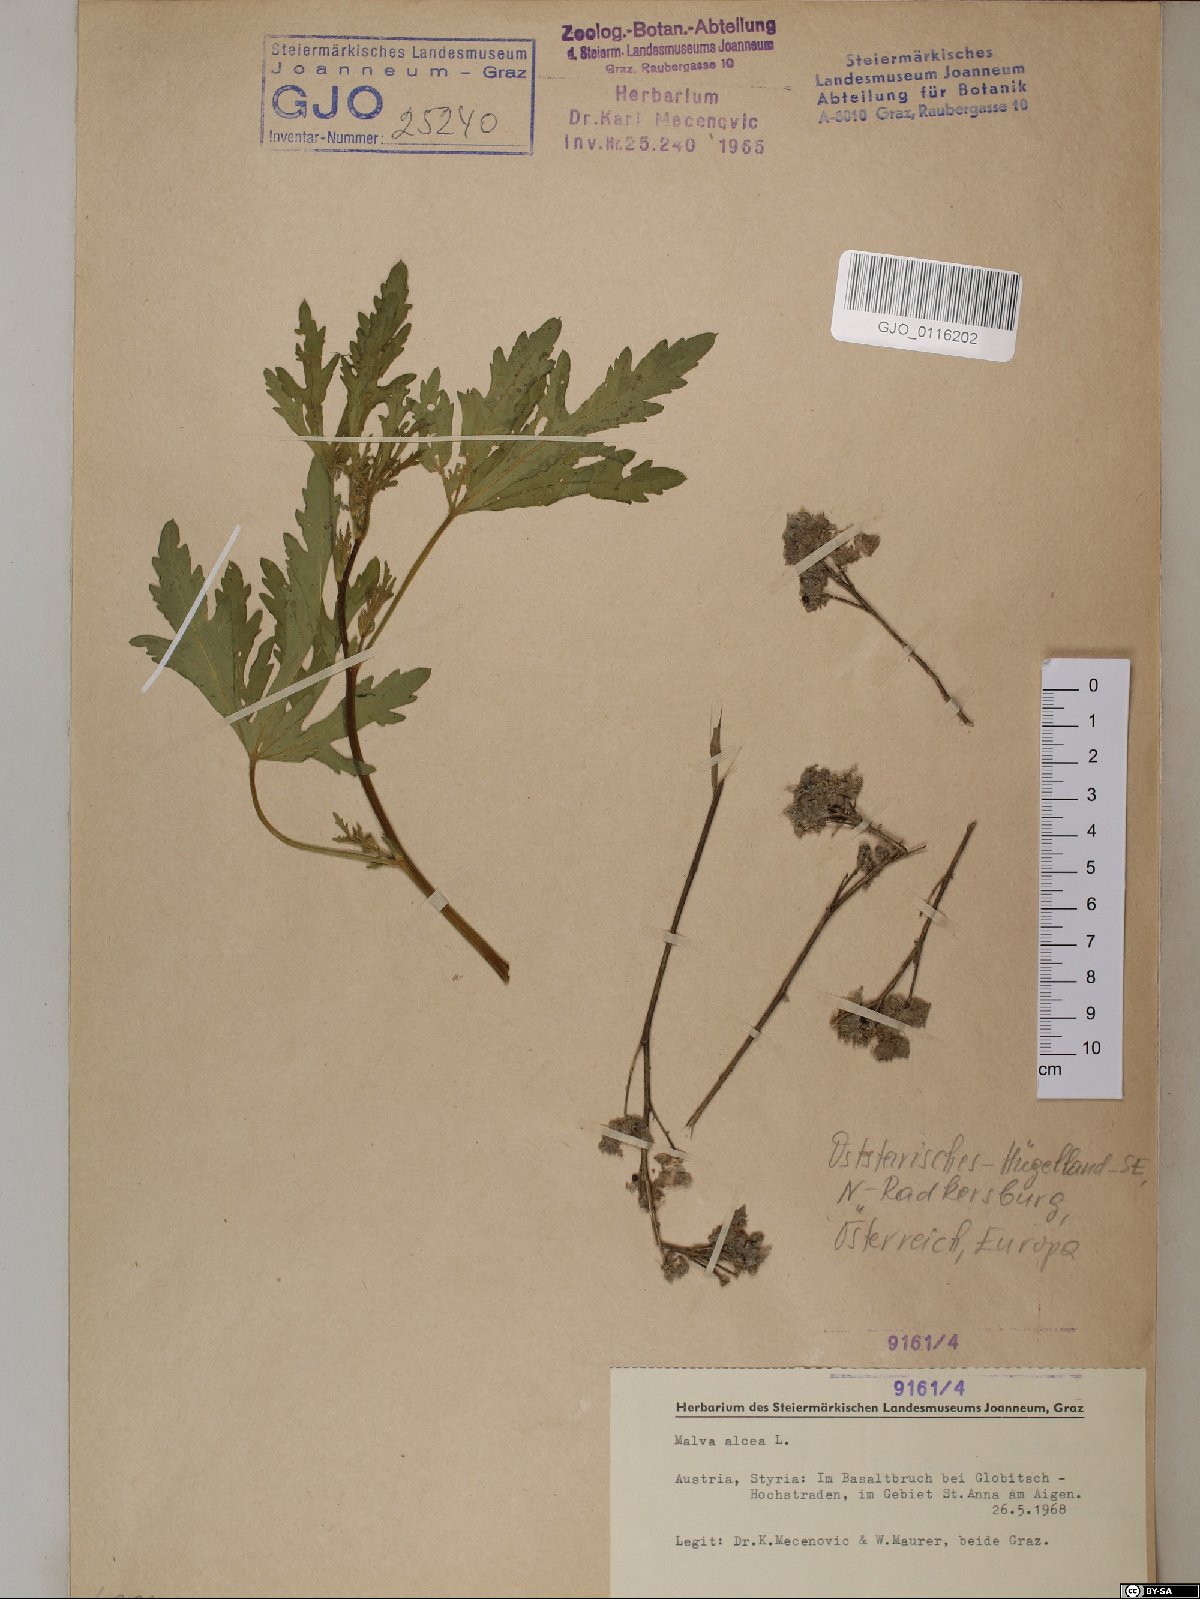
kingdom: Plantae
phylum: Tracheophyta
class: Magnoliopsida
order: Malvales
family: Malvaceae
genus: Malva
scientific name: Malva alcea
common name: Greater musk-mallow
